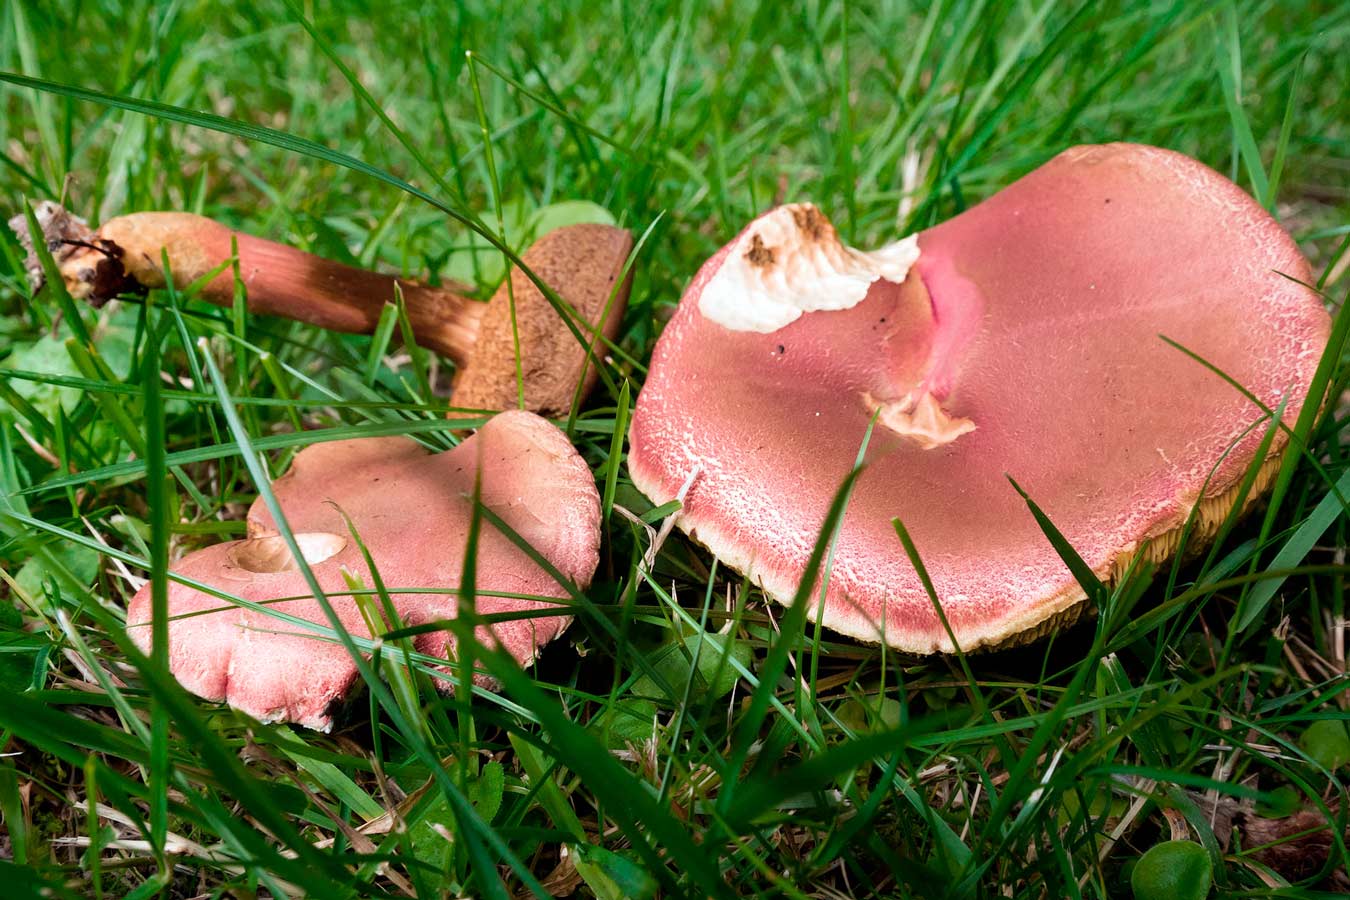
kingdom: Fungi
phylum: Basidiomycota
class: Agaricomycetes
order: Boletales
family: Boletaceae
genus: Hortiboletus
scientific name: Hortiboletus rubellus
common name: blodrød rørhat
